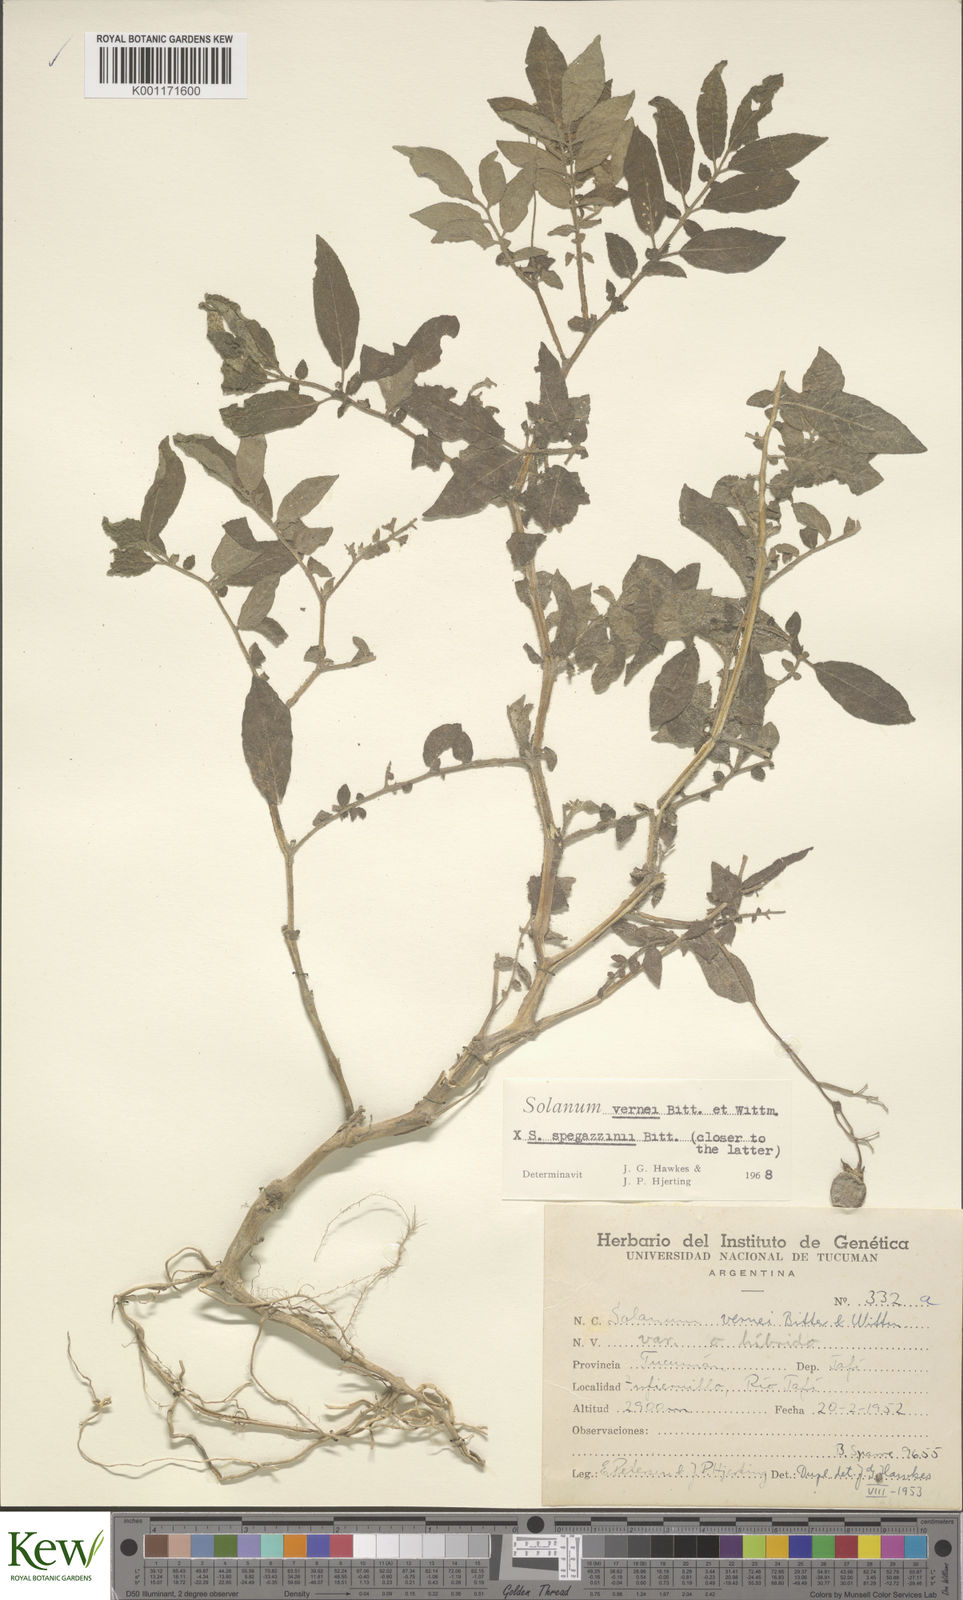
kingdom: Plantae
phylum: Tracheophyta
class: Magnoliopsida
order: Solanales
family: Solanaceae
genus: Solanum
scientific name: Solanum vernei
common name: Purple potato
